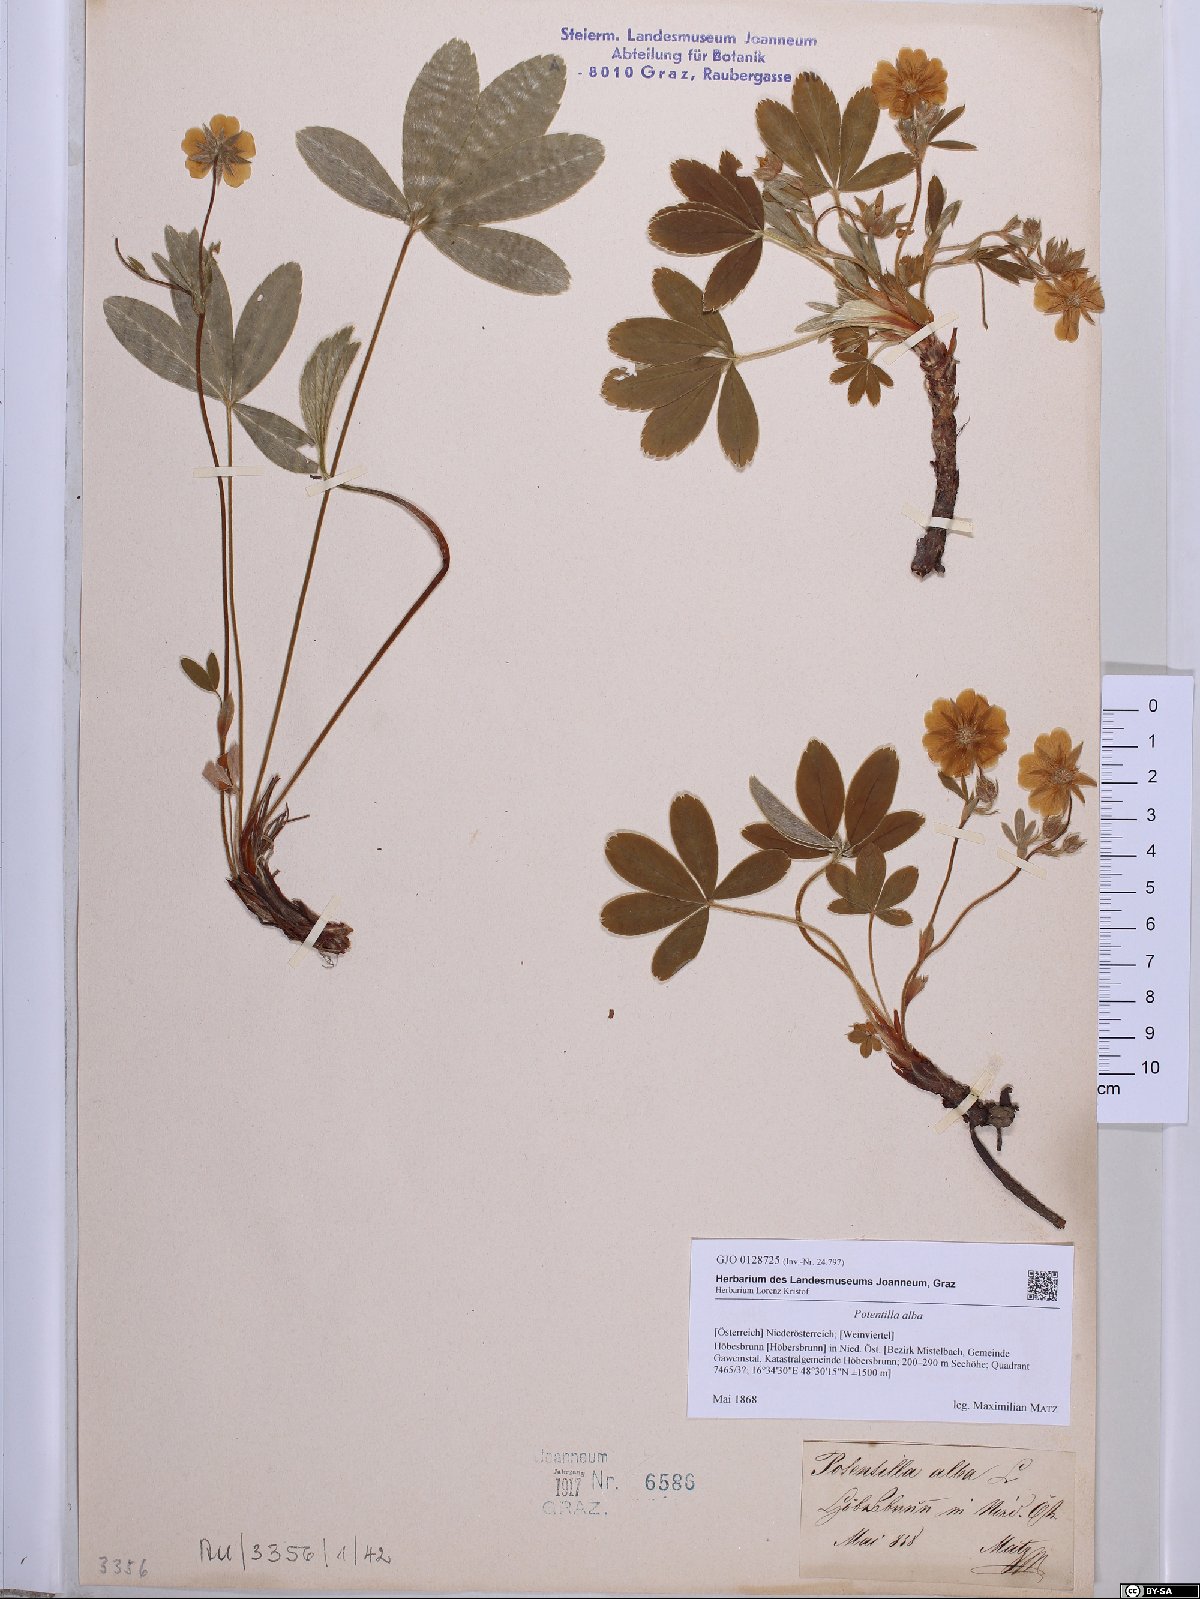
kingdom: Plantae
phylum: Tracheophyta
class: Magnoliopsida
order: Rosales
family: Rosaceae
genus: Potentilla
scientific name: Potentilla alba
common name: White cinquefoil
